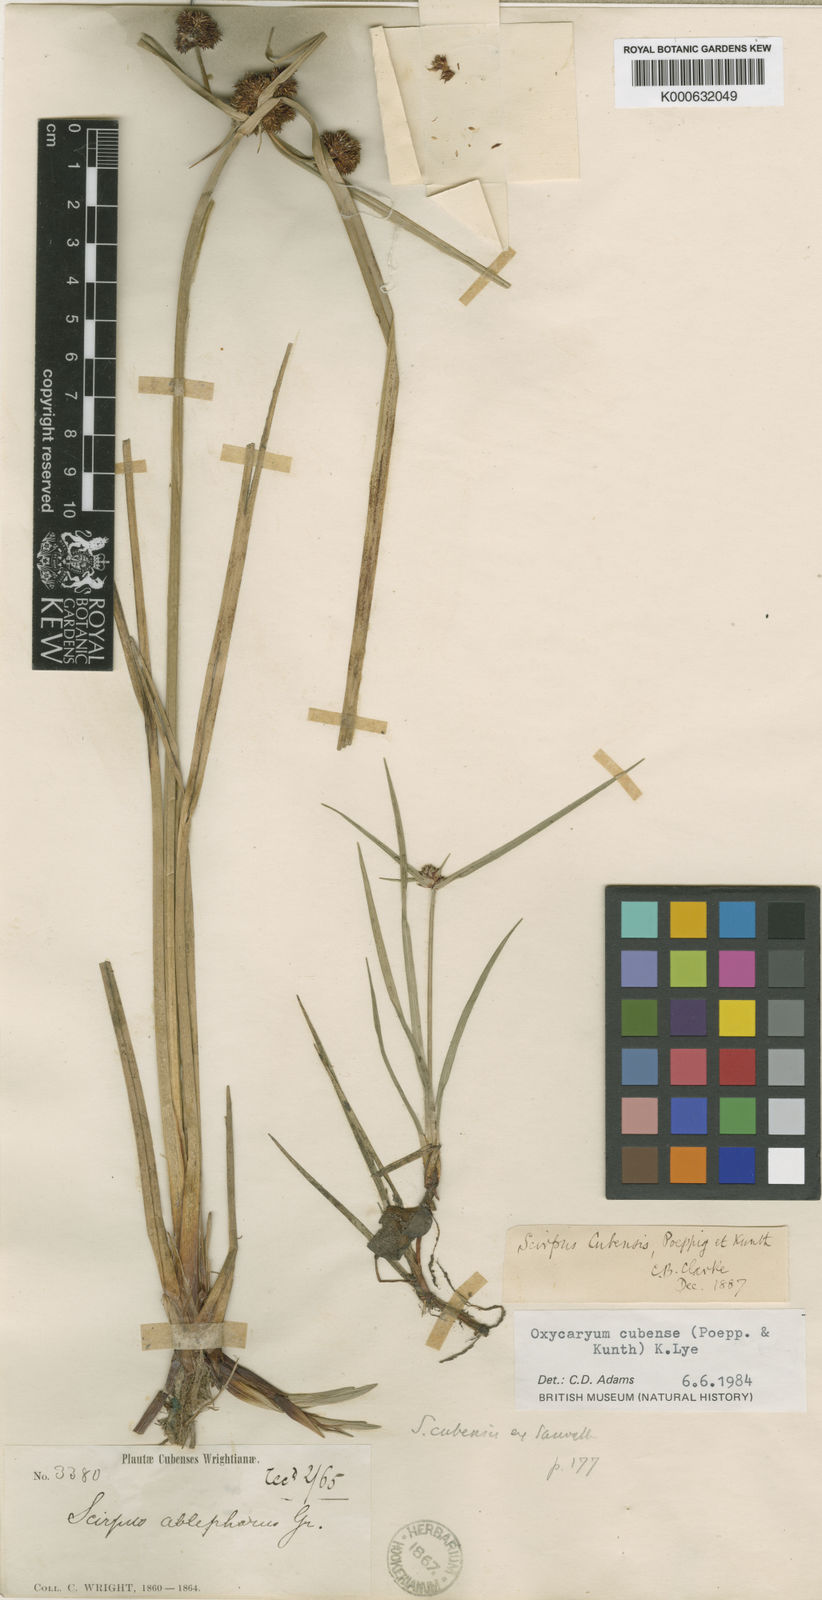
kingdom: Plantae
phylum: Tracheophyta
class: Liliopsida
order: Poales
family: Cyperaceae
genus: Cyperus
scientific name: Cyperus
